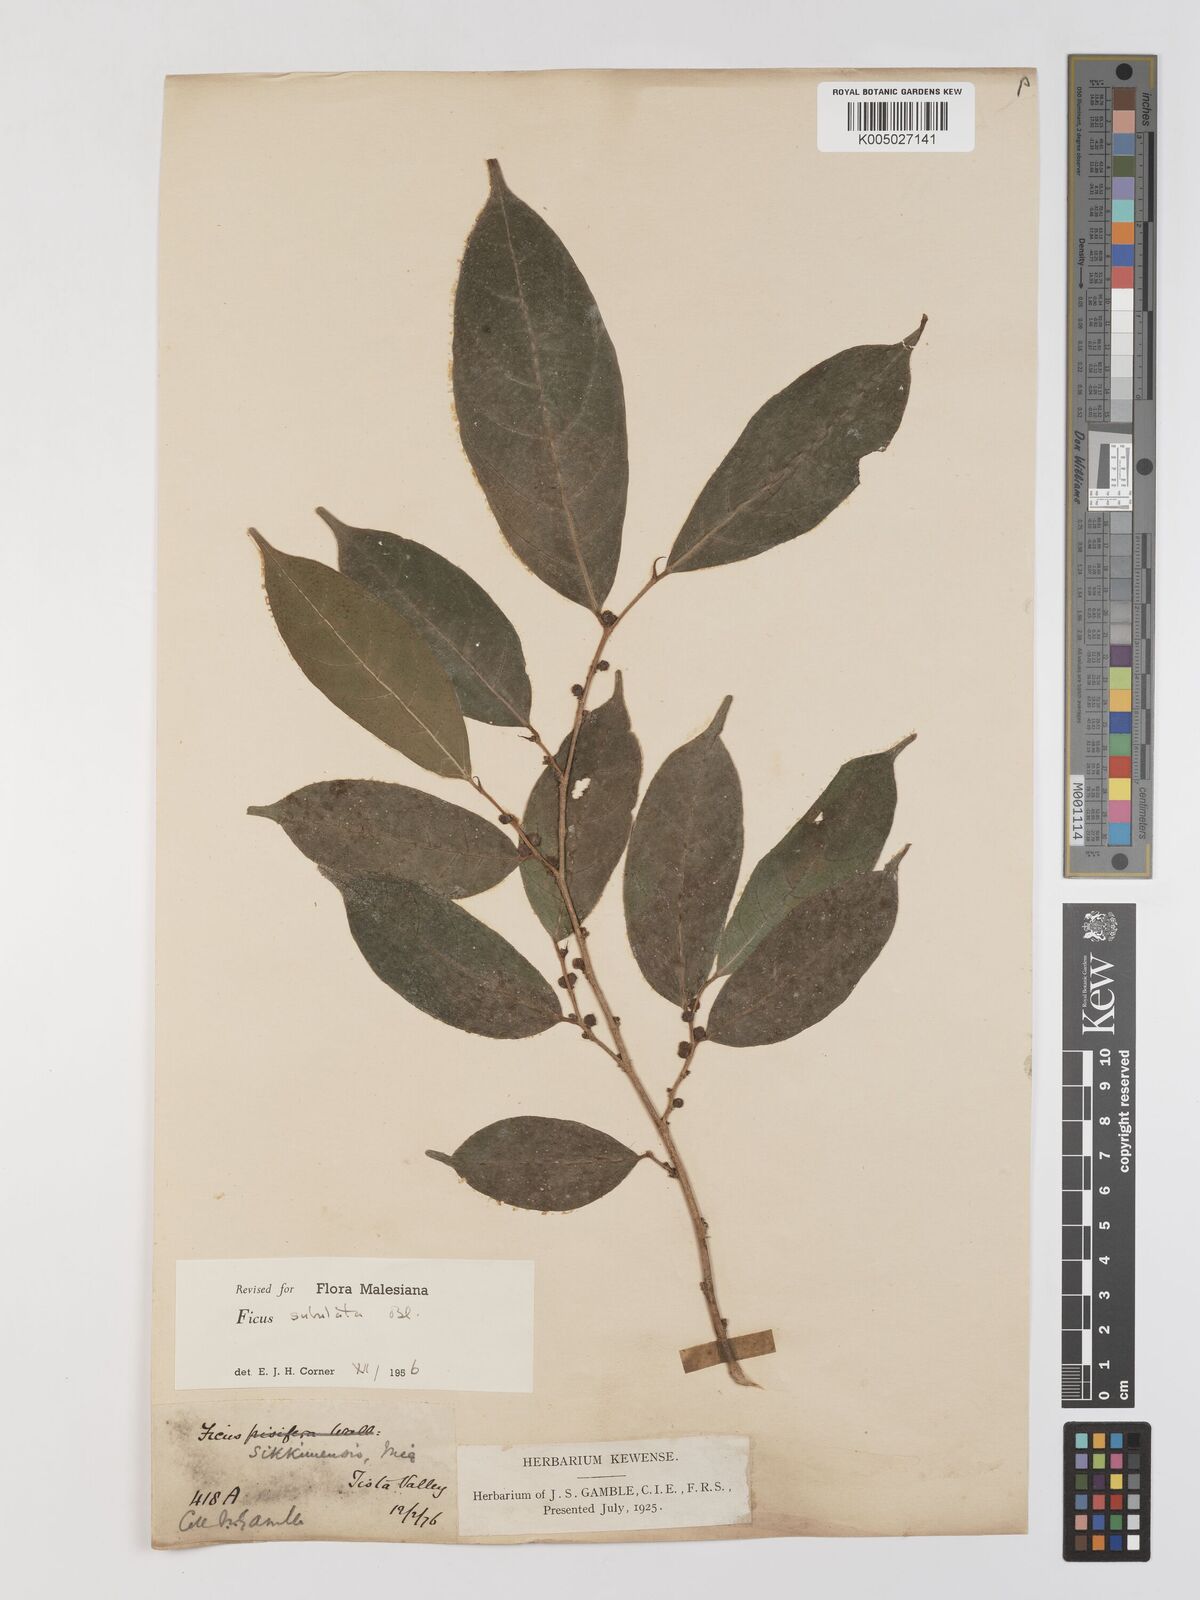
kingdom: Plantae
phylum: Tracheophyta
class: Magnoliopsida
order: Rosales
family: Moraceae
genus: Ficus
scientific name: Ficus subulata
